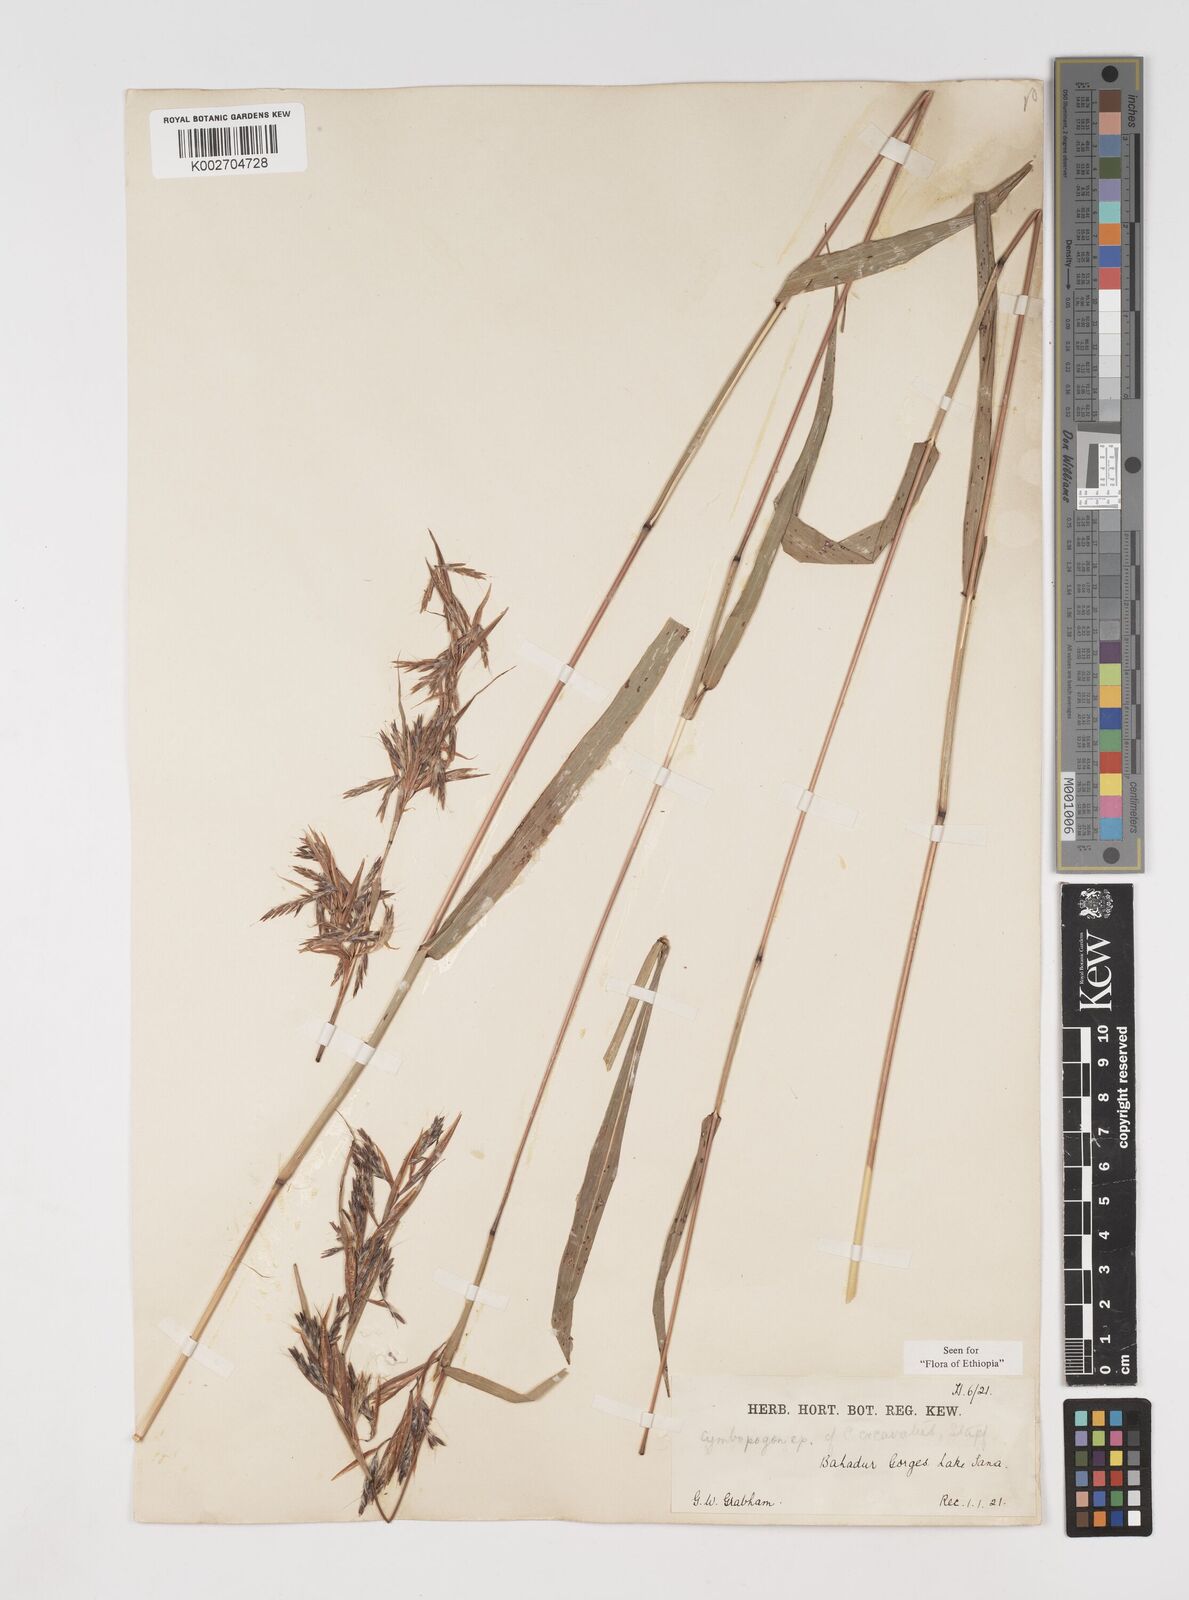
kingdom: Plantae
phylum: Tracheophyta
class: Liliopsida
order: Poales
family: Poaceae
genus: Cymbopogon
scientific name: Cymbopogon caesius
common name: Kachi grass
